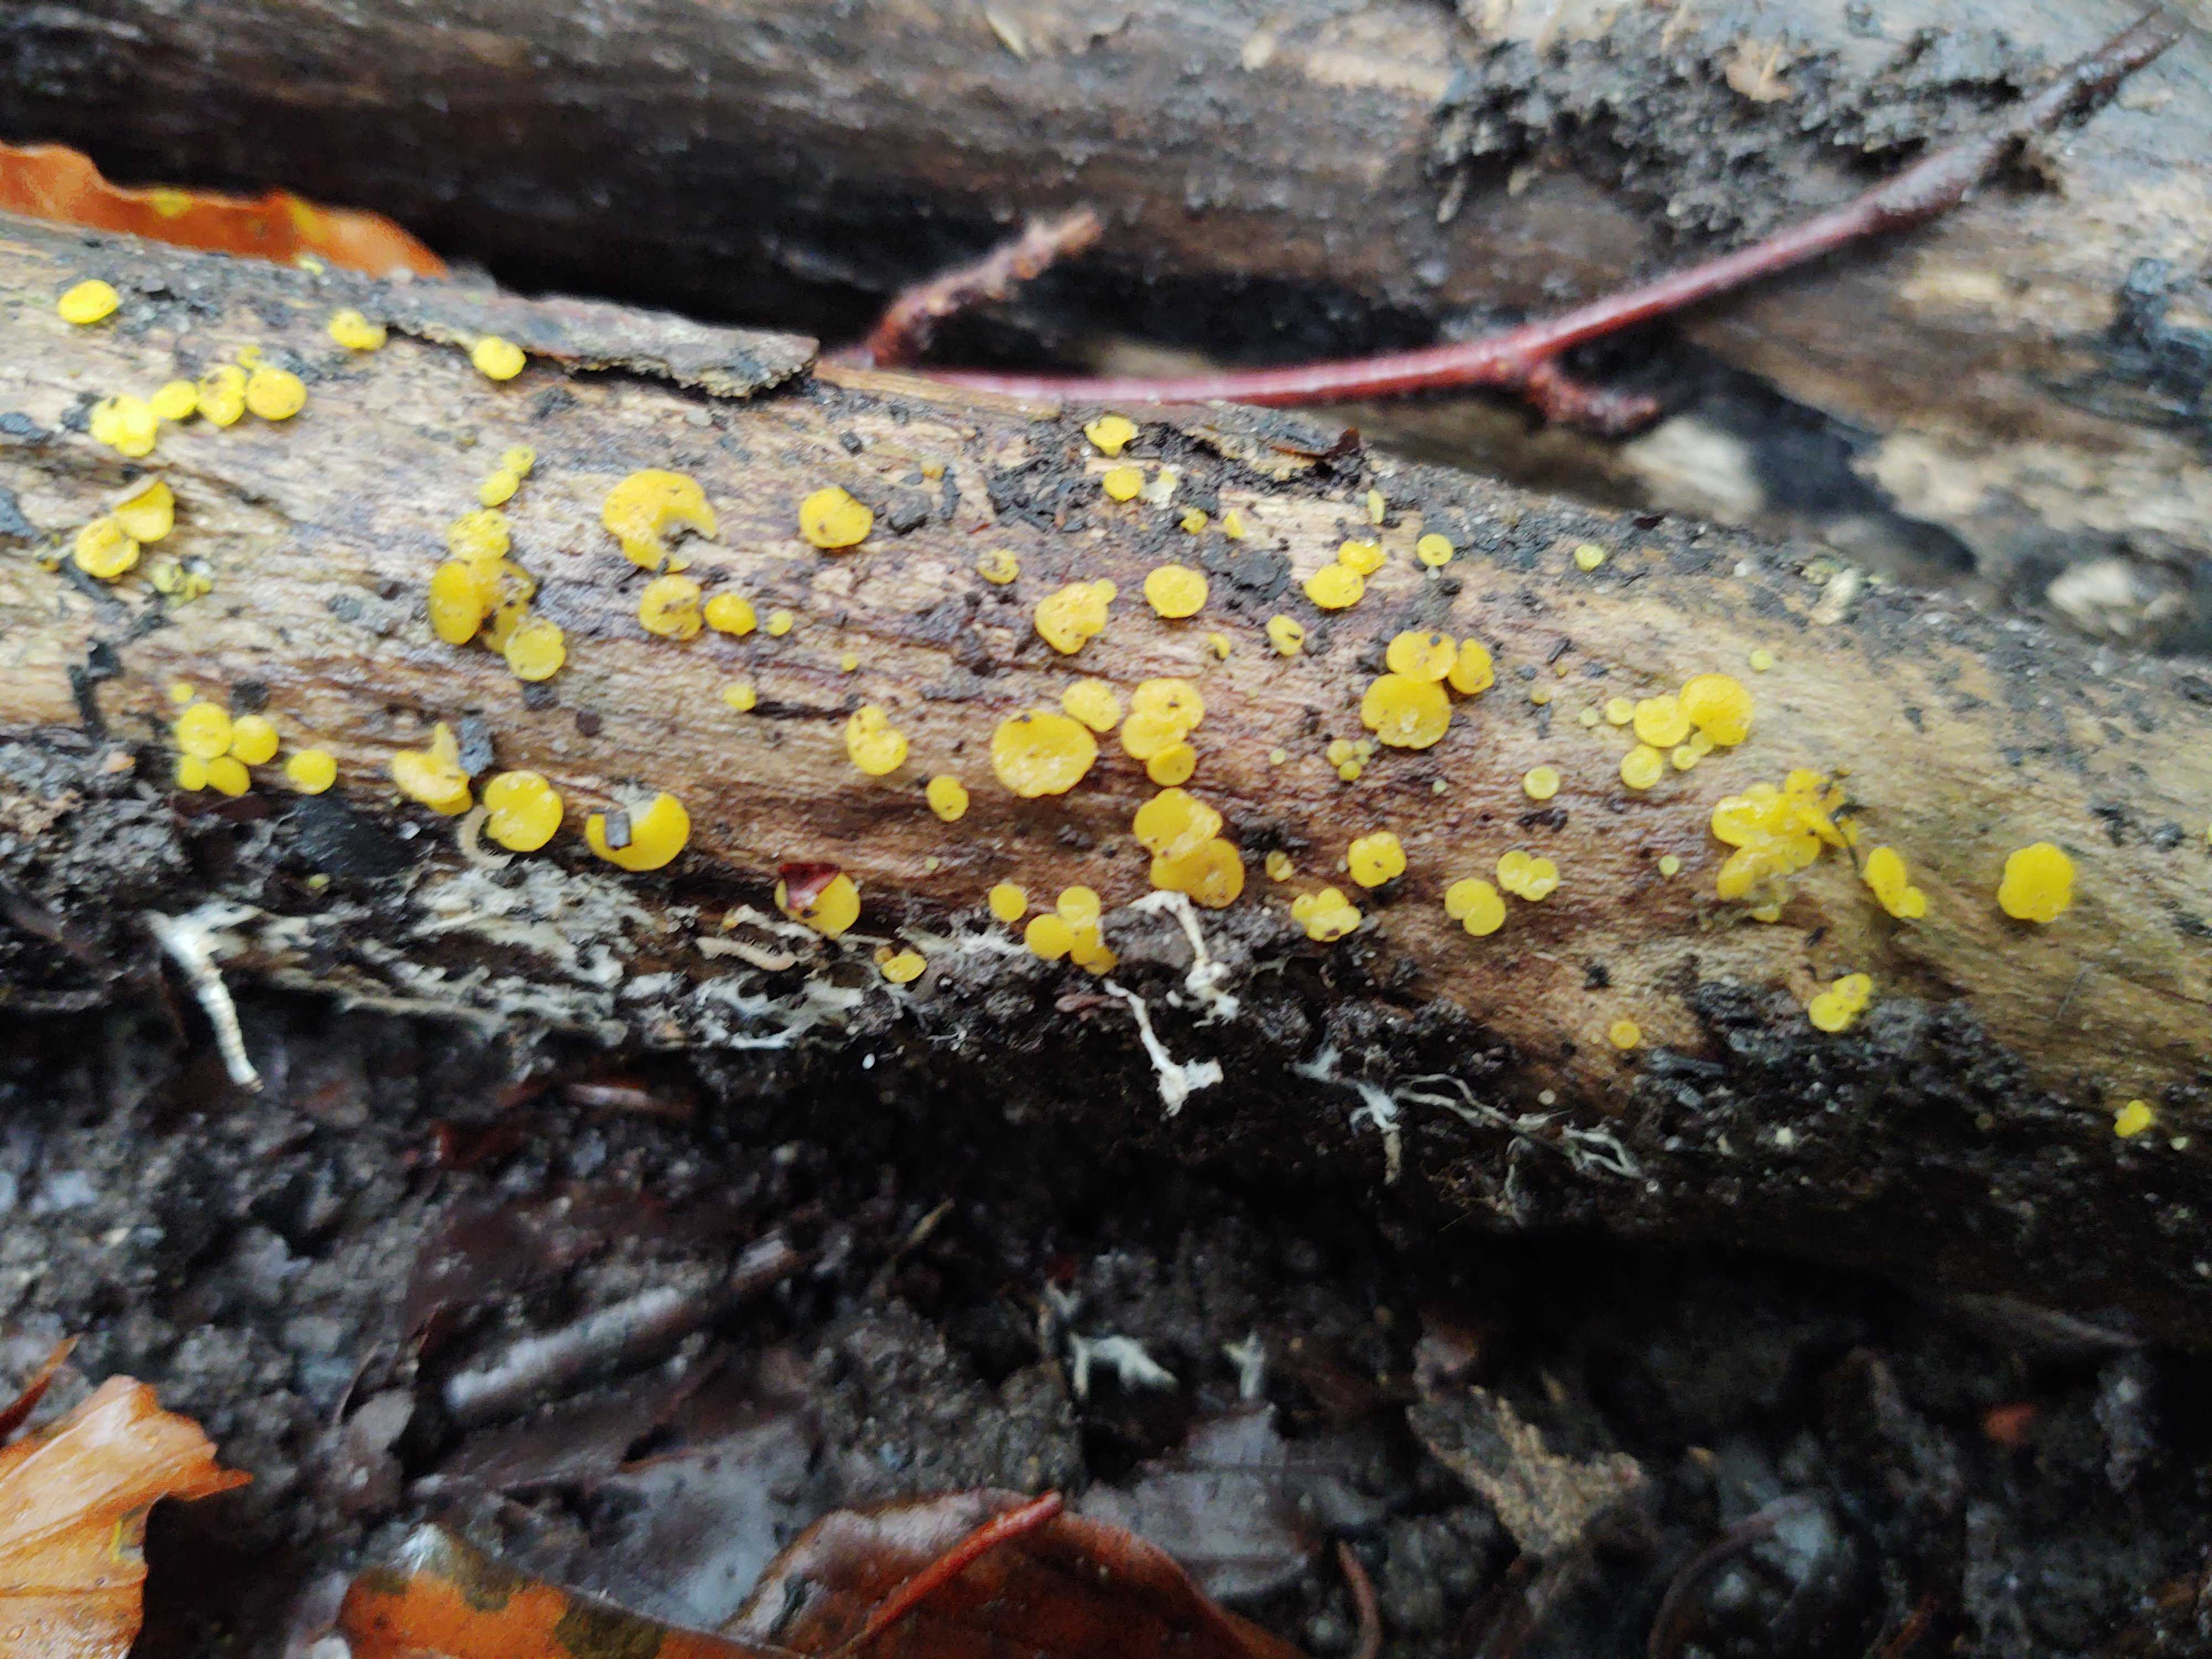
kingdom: Fungi
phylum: Ascomycota
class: Leotiomycetes
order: Helotiales
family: Pezizellaceae
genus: Calycina
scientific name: Calycina citrina
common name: almindelig gulskive
